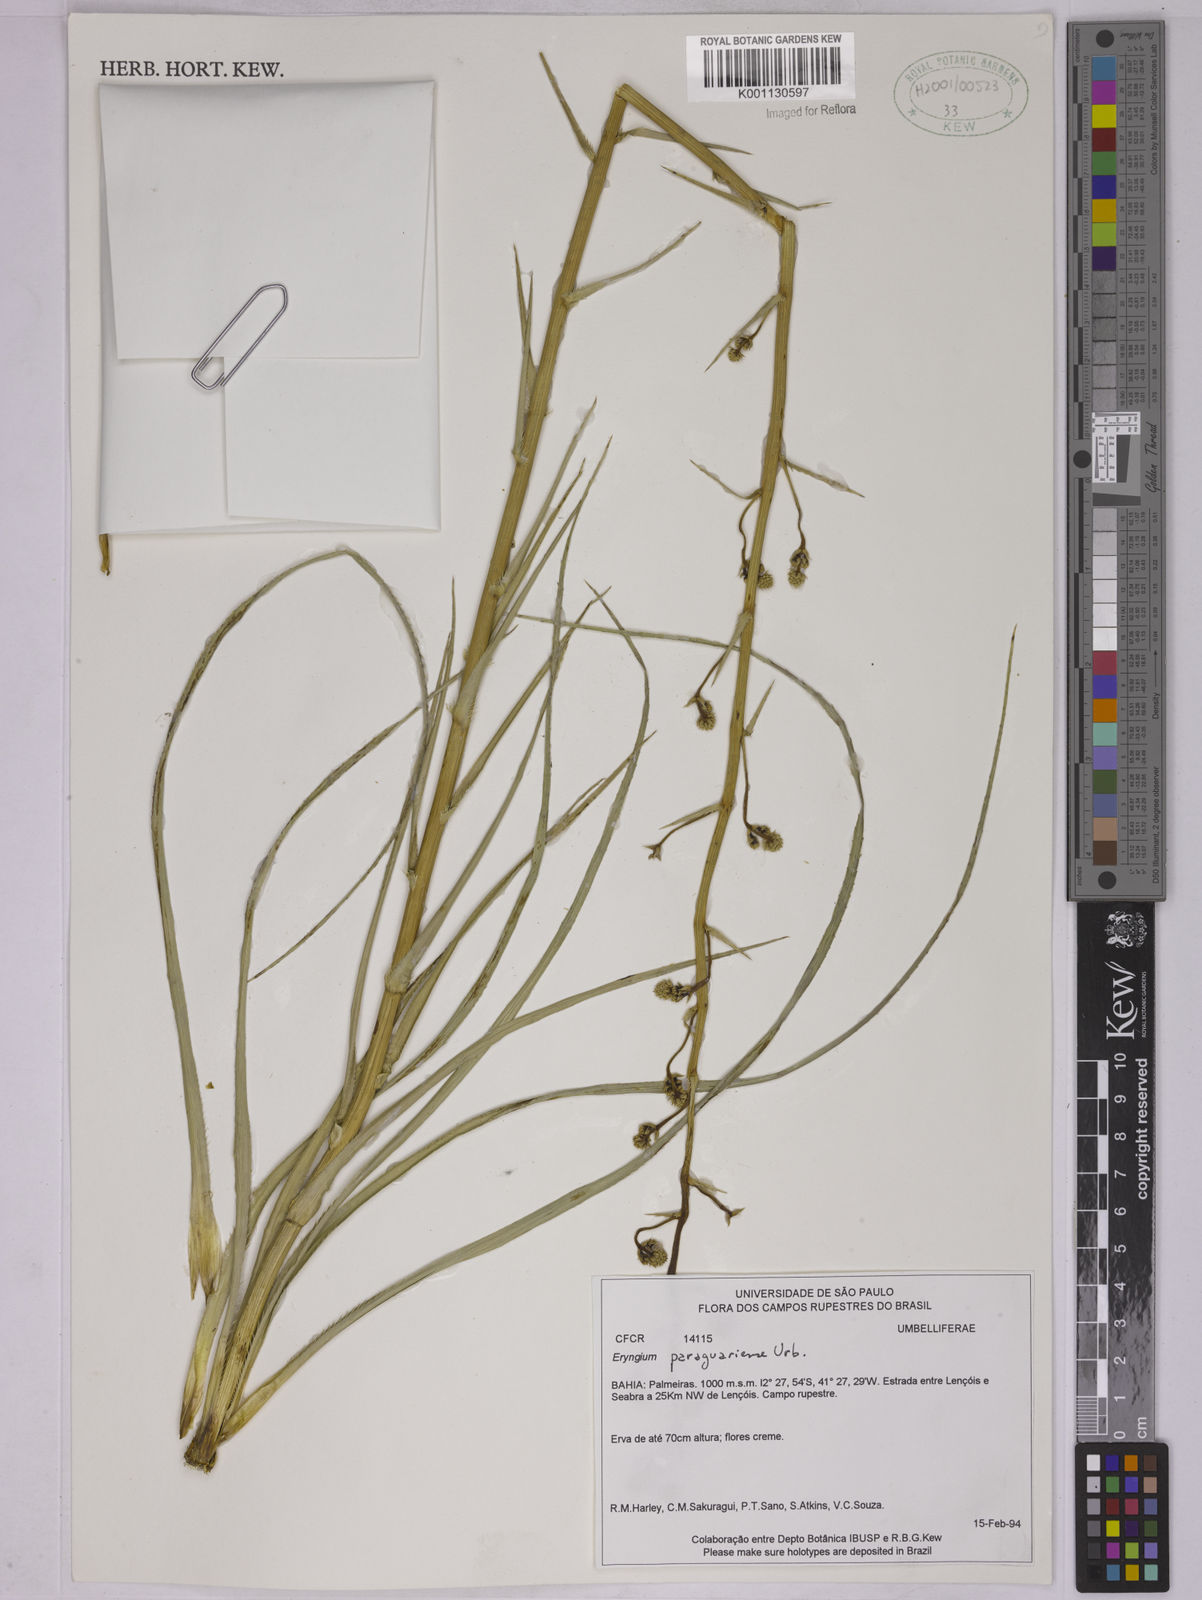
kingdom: Plantae
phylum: Tracheophyta
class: Magnoliopsida
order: Apiales
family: Apiaceae
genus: Eryngium
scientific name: Eryngium canaliculatum
